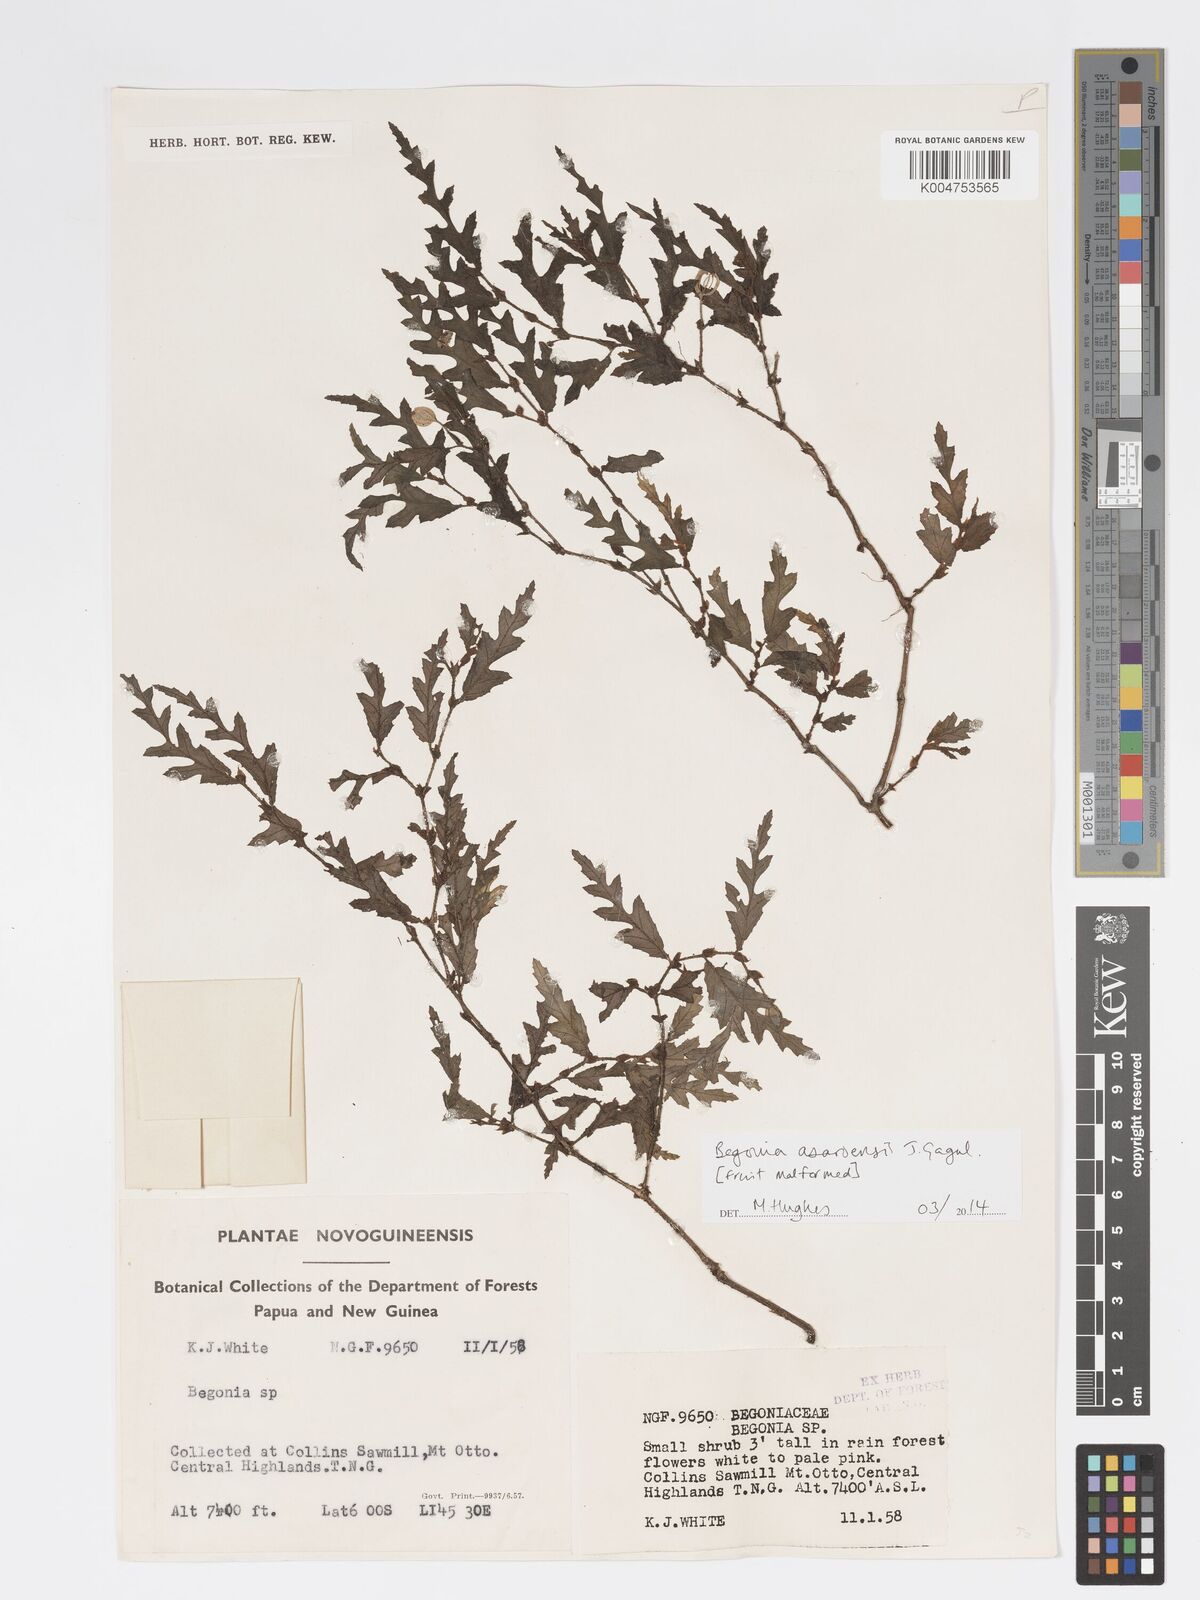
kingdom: Plantae
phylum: Tracheophyta
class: Magnoliopsida
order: Cucurbitales
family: Begoniaceae
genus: Begonia
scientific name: Begonia asaroensis
